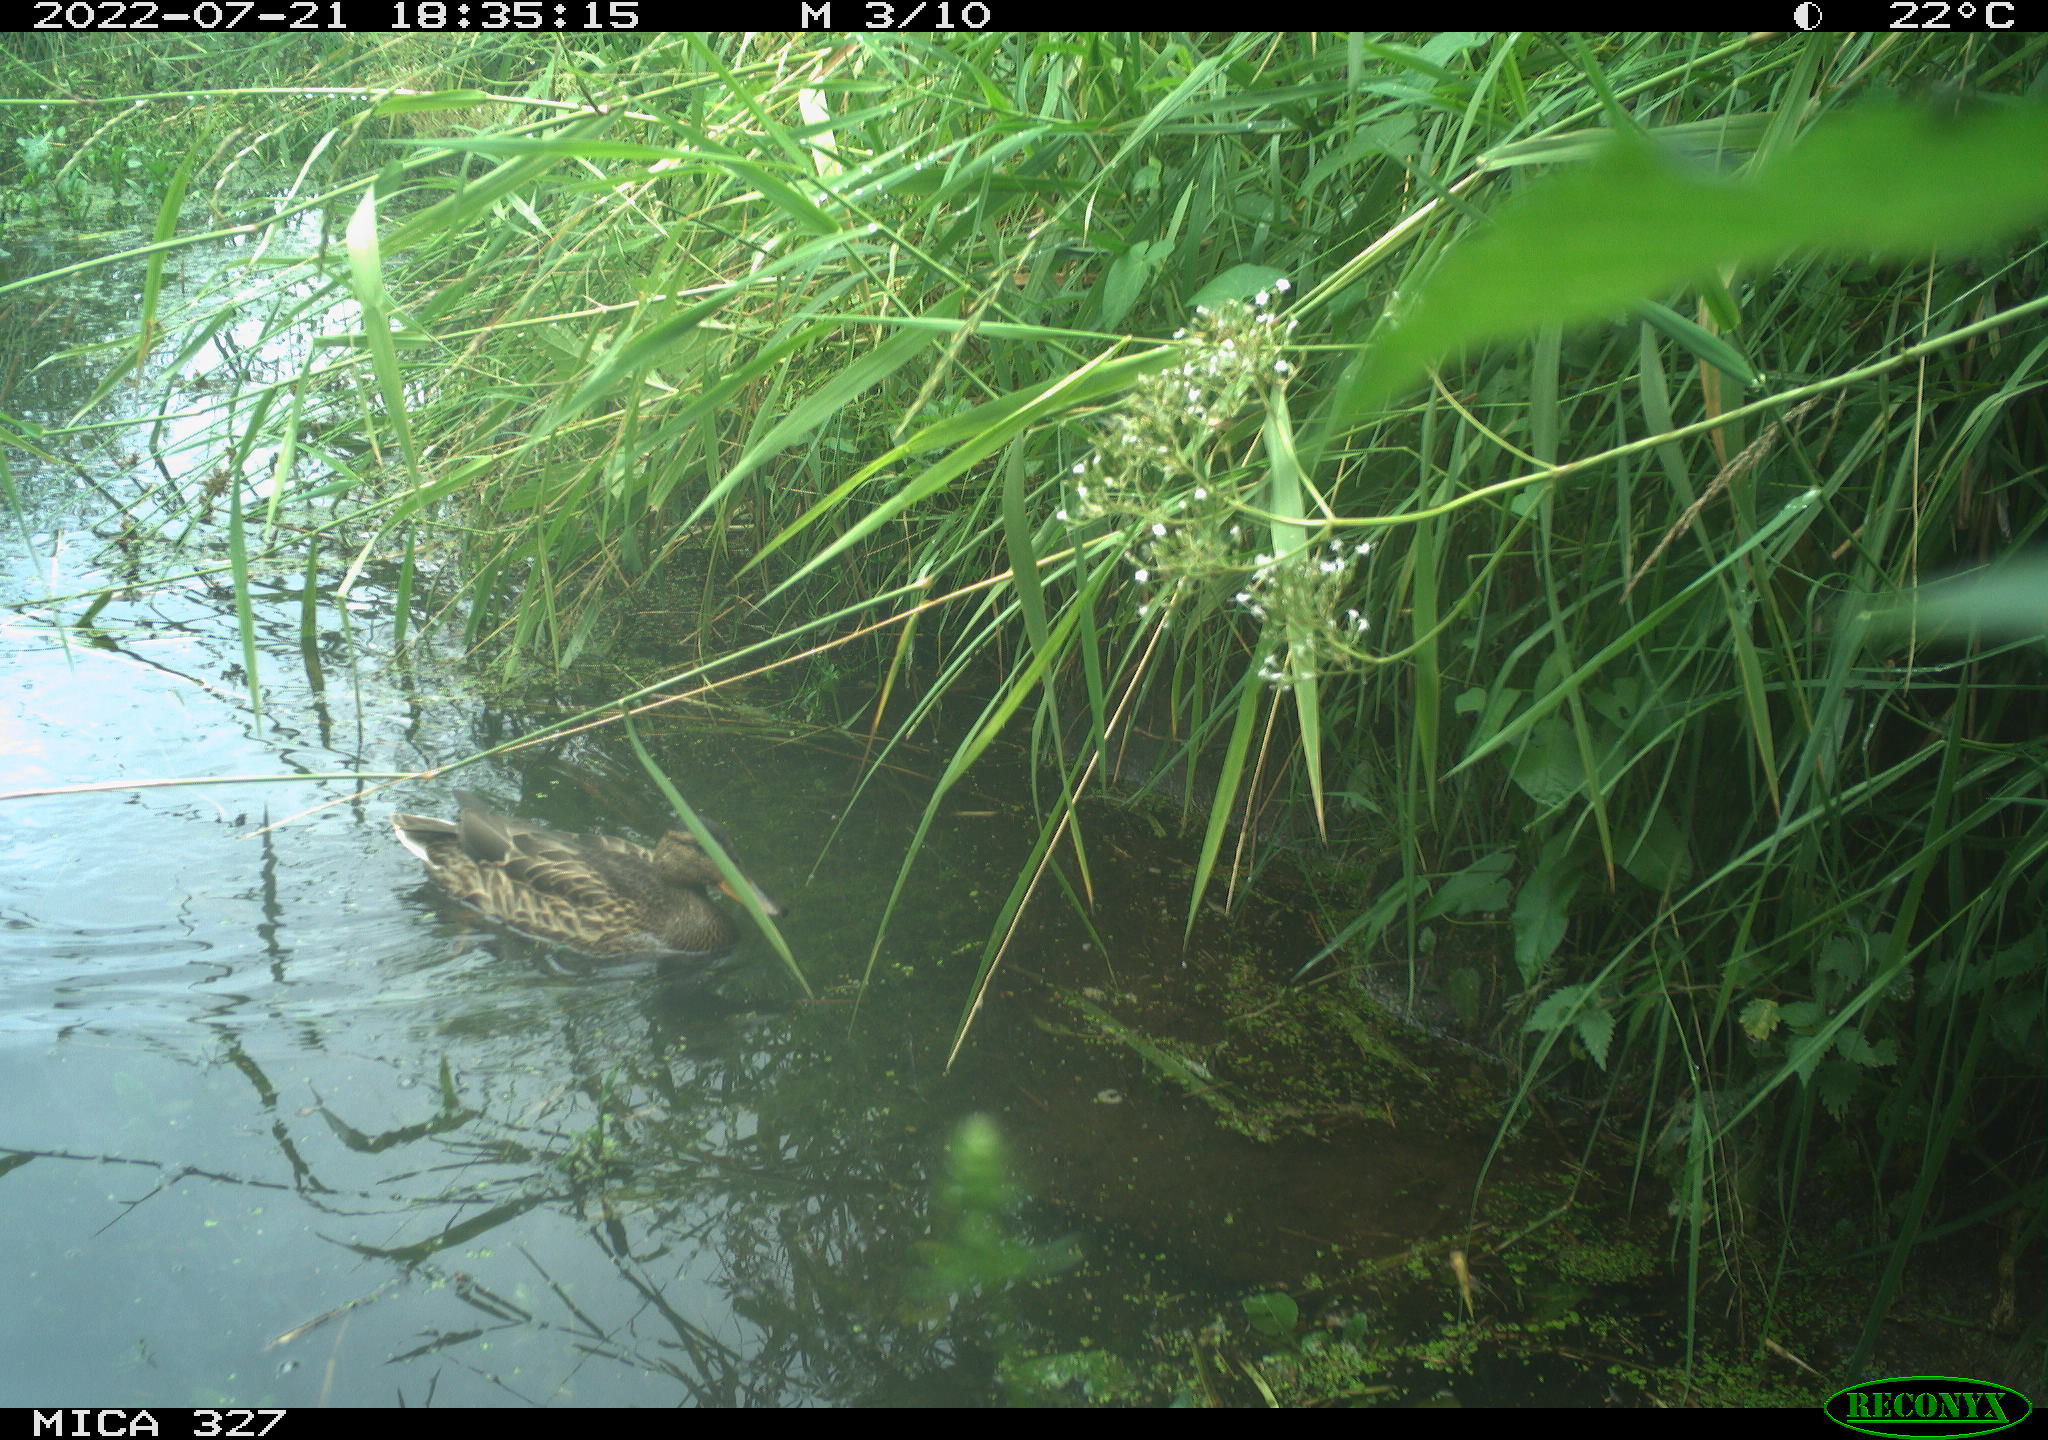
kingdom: Animalia
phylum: Chordata
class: Aves
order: Anseriformes
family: Anatidae
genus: Anas
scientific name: Anas
